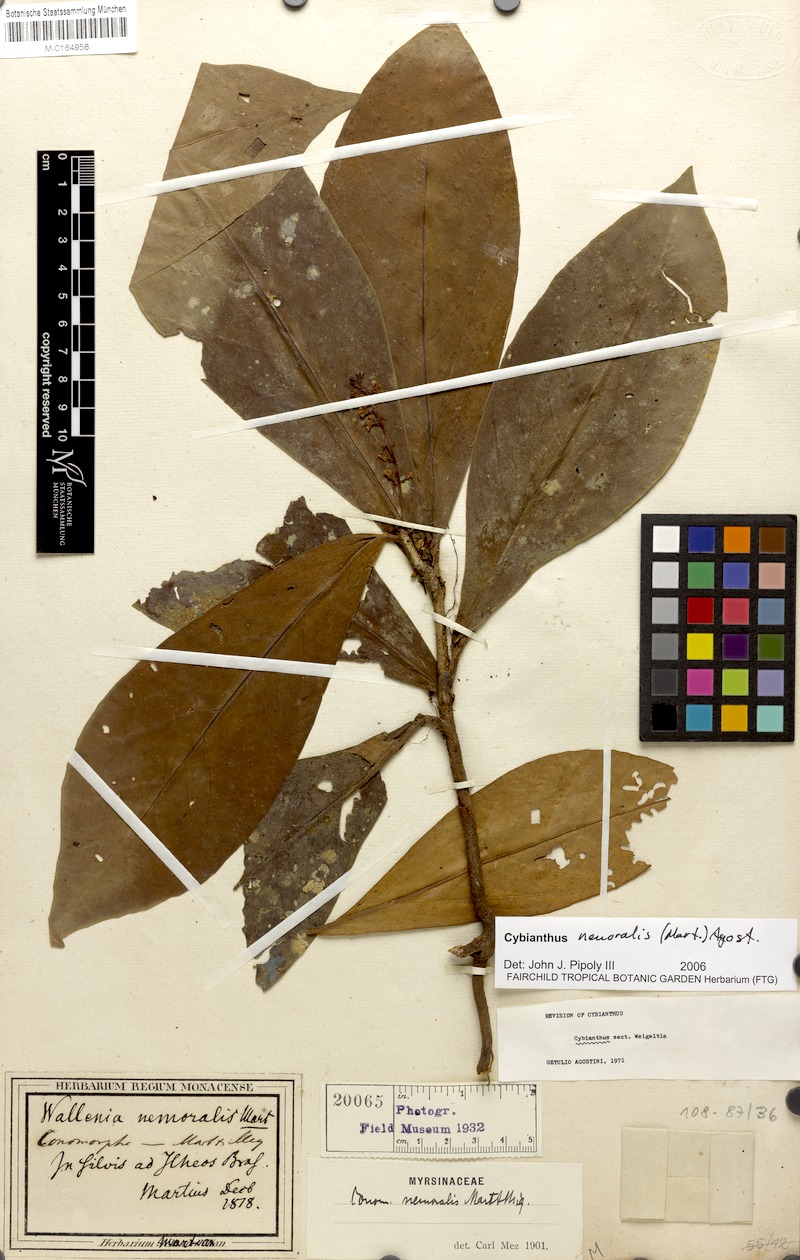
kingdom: Plantae
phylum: Tracheophyta
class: Magnoliopsida
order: Ericales
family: Primulaceae
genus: Cybianthus
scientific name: Cybianthus nemoralis
